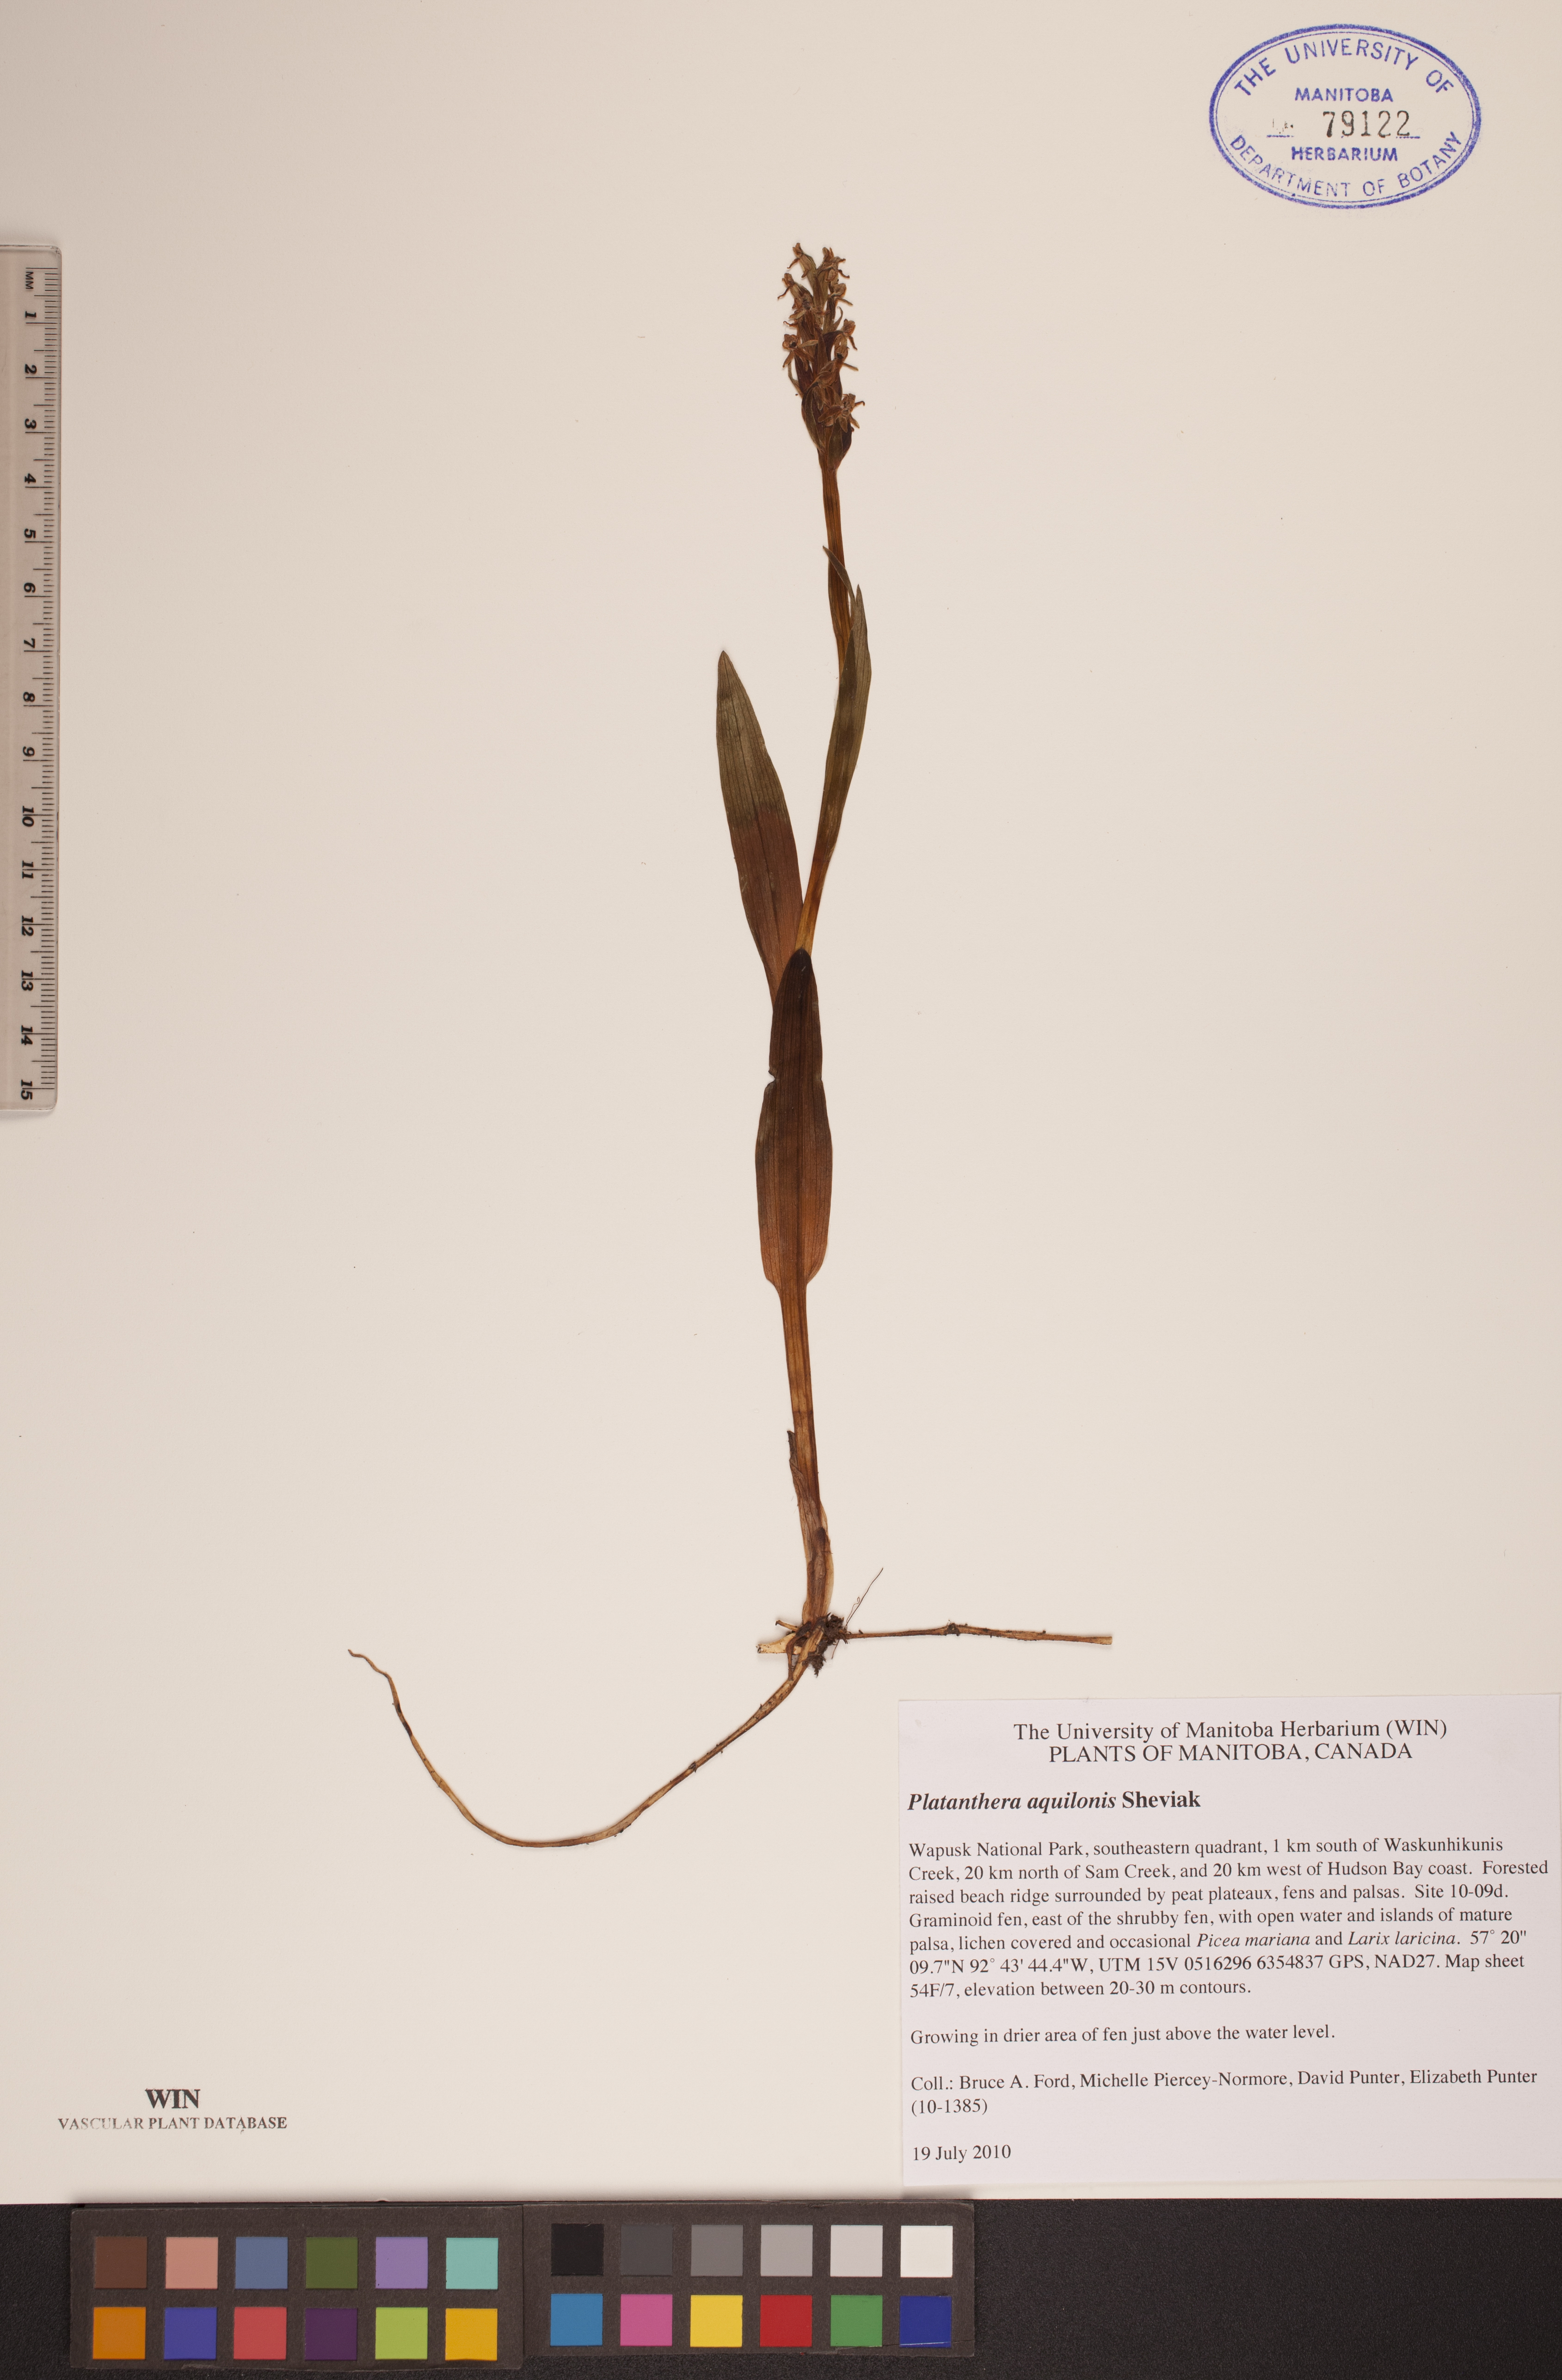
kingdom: Plantae
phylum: Tracheophyta
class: Liliopsida
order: Asparagales
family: Orchidaceae
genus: Platanthera
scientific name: Platanthera aquilonis
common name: Northern green orchid
